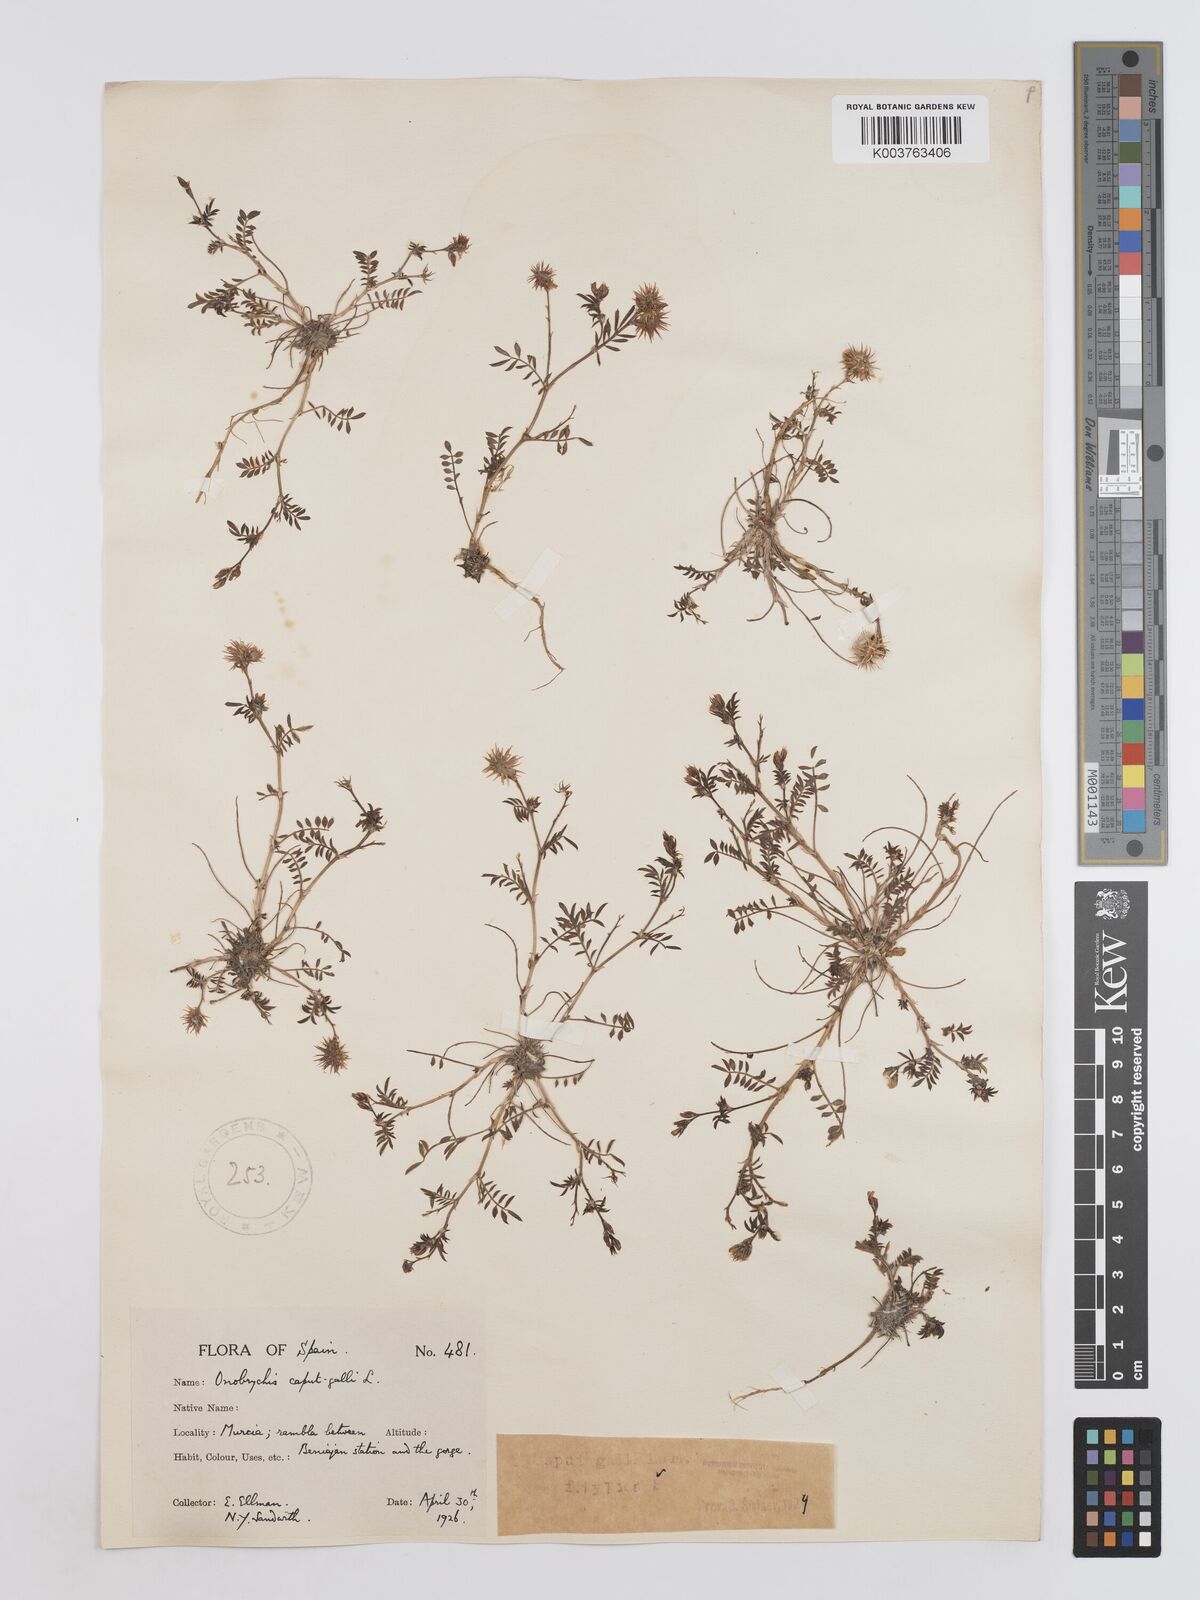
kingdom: Plantae
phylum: Tracheophyta
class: Magnoliopsida
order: Fabales
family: Fabaceae
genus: Onobrychis
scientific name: Onobrychis caput-galli
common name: Cockscomb sainfoin
